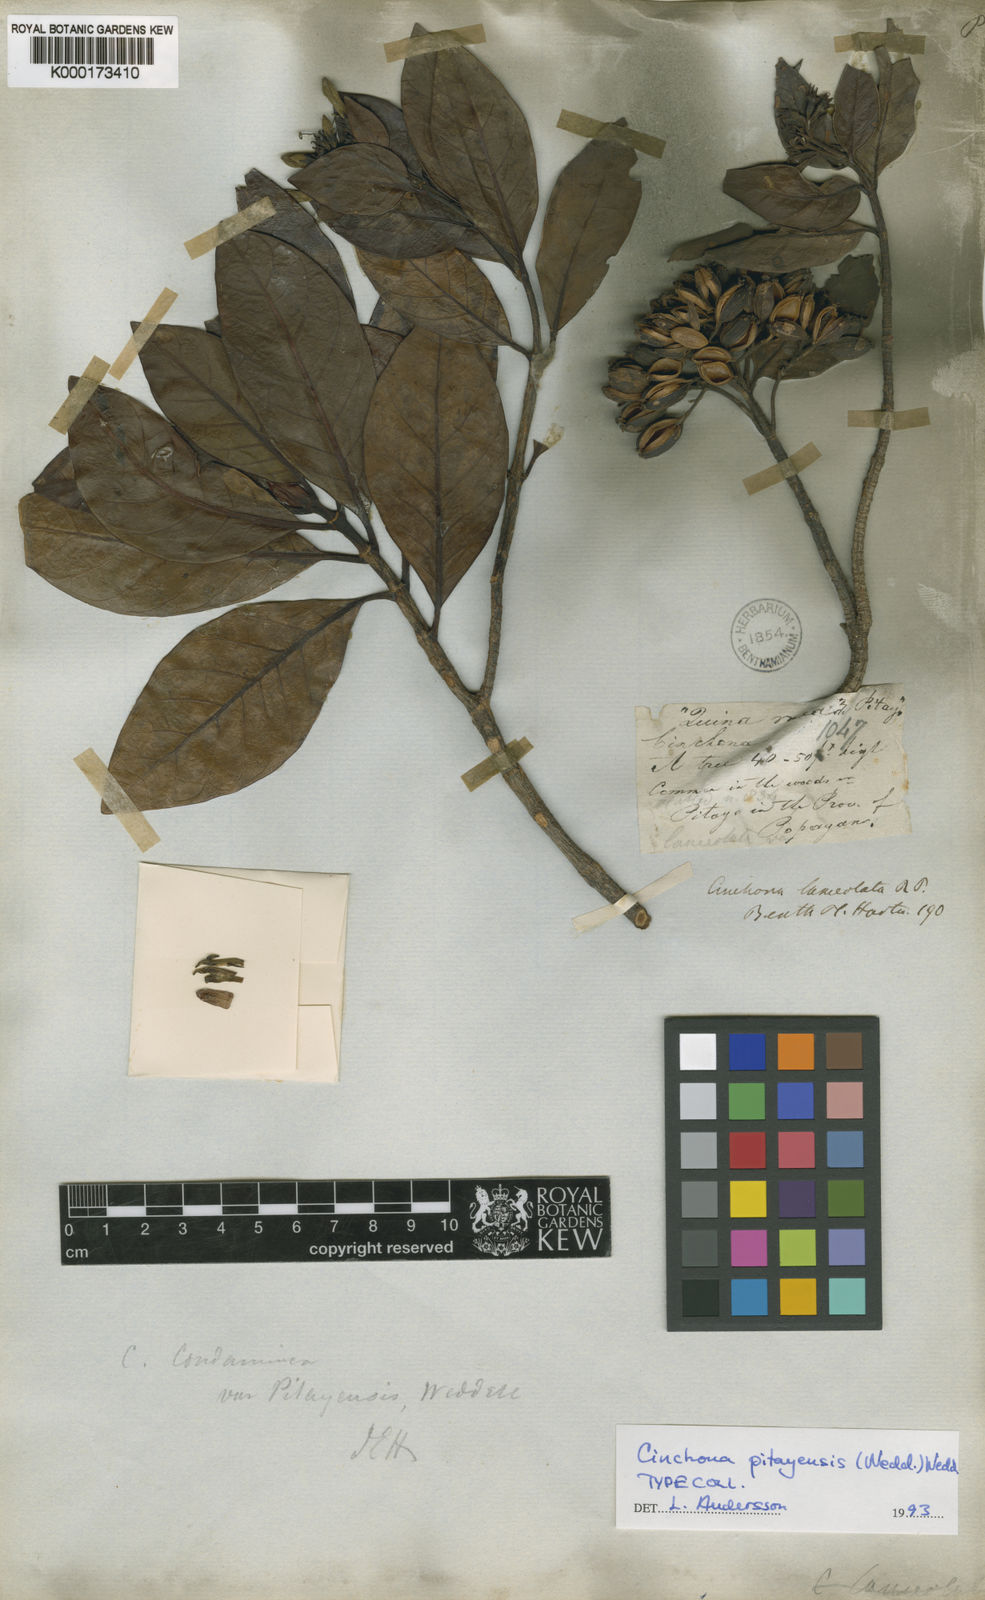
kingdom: Plantae
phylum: Tracheophyta
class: Magnoliopsida
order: Gentianales
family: Rubiaceae
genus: Cinchona
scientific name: Cinchona pitayensis
